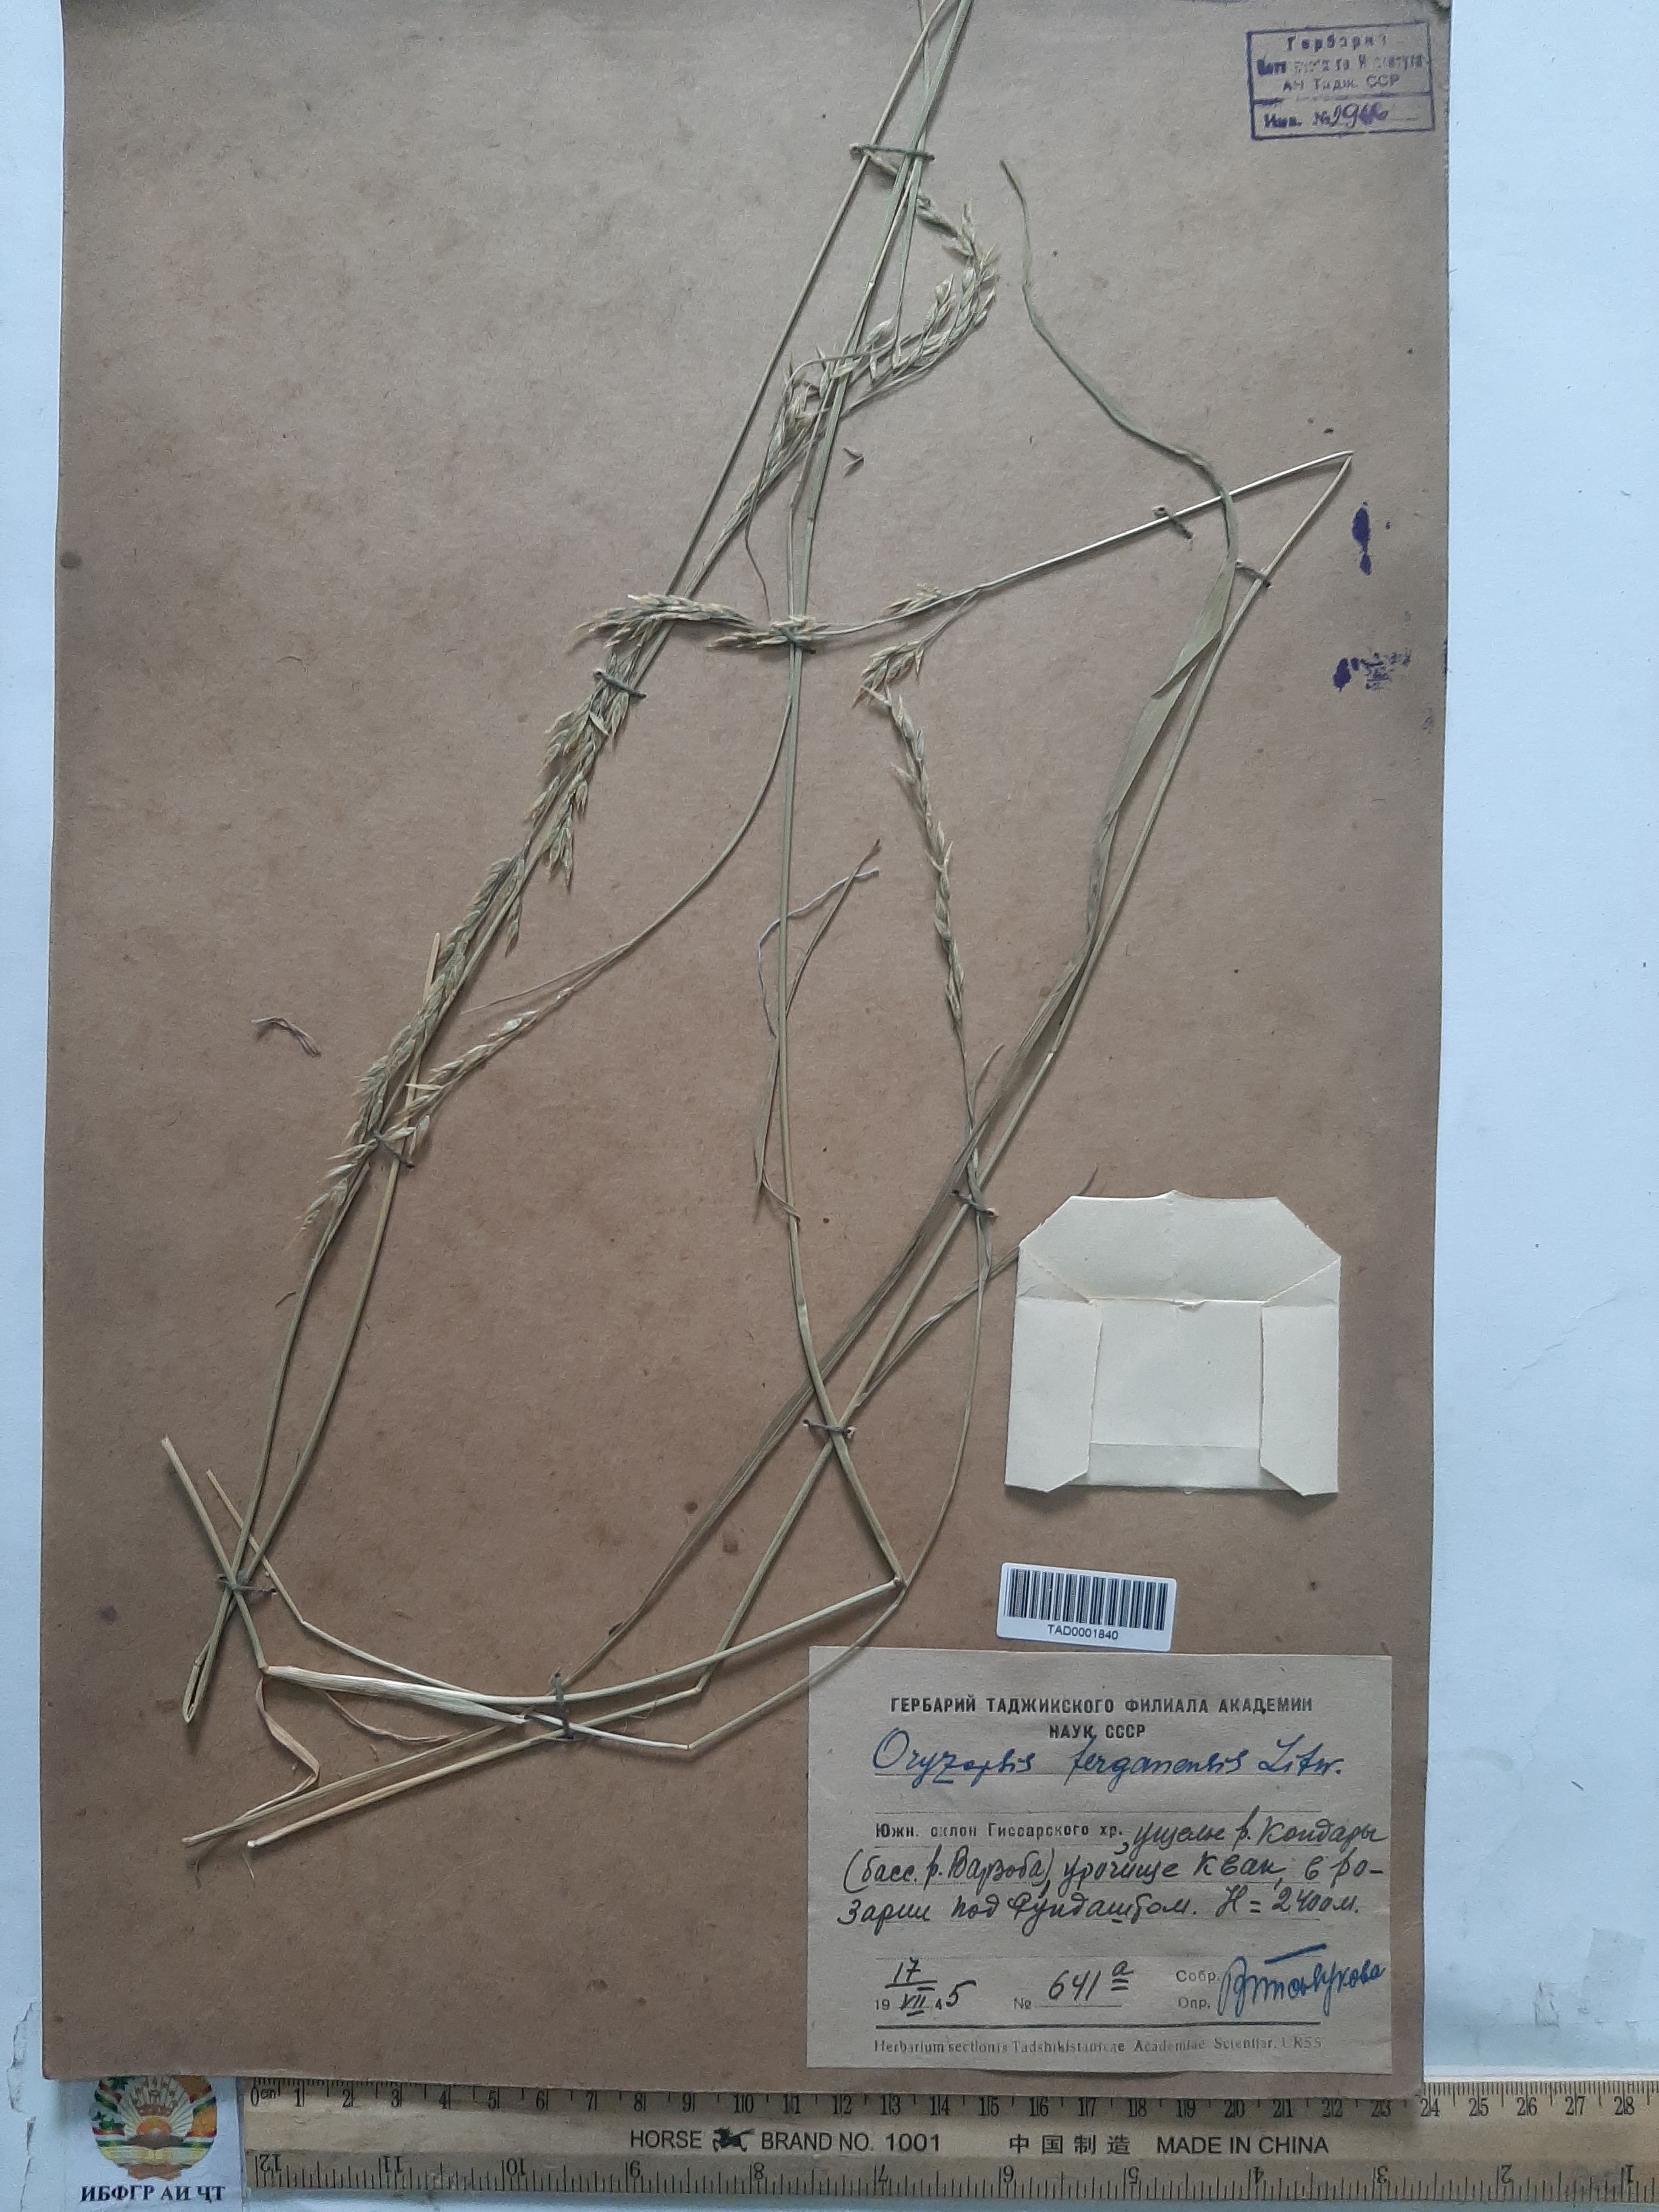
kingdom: Plantae
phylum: Tracheophyta
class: Liliopsida
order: Poales
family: Poaceae
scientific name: Poaceae
